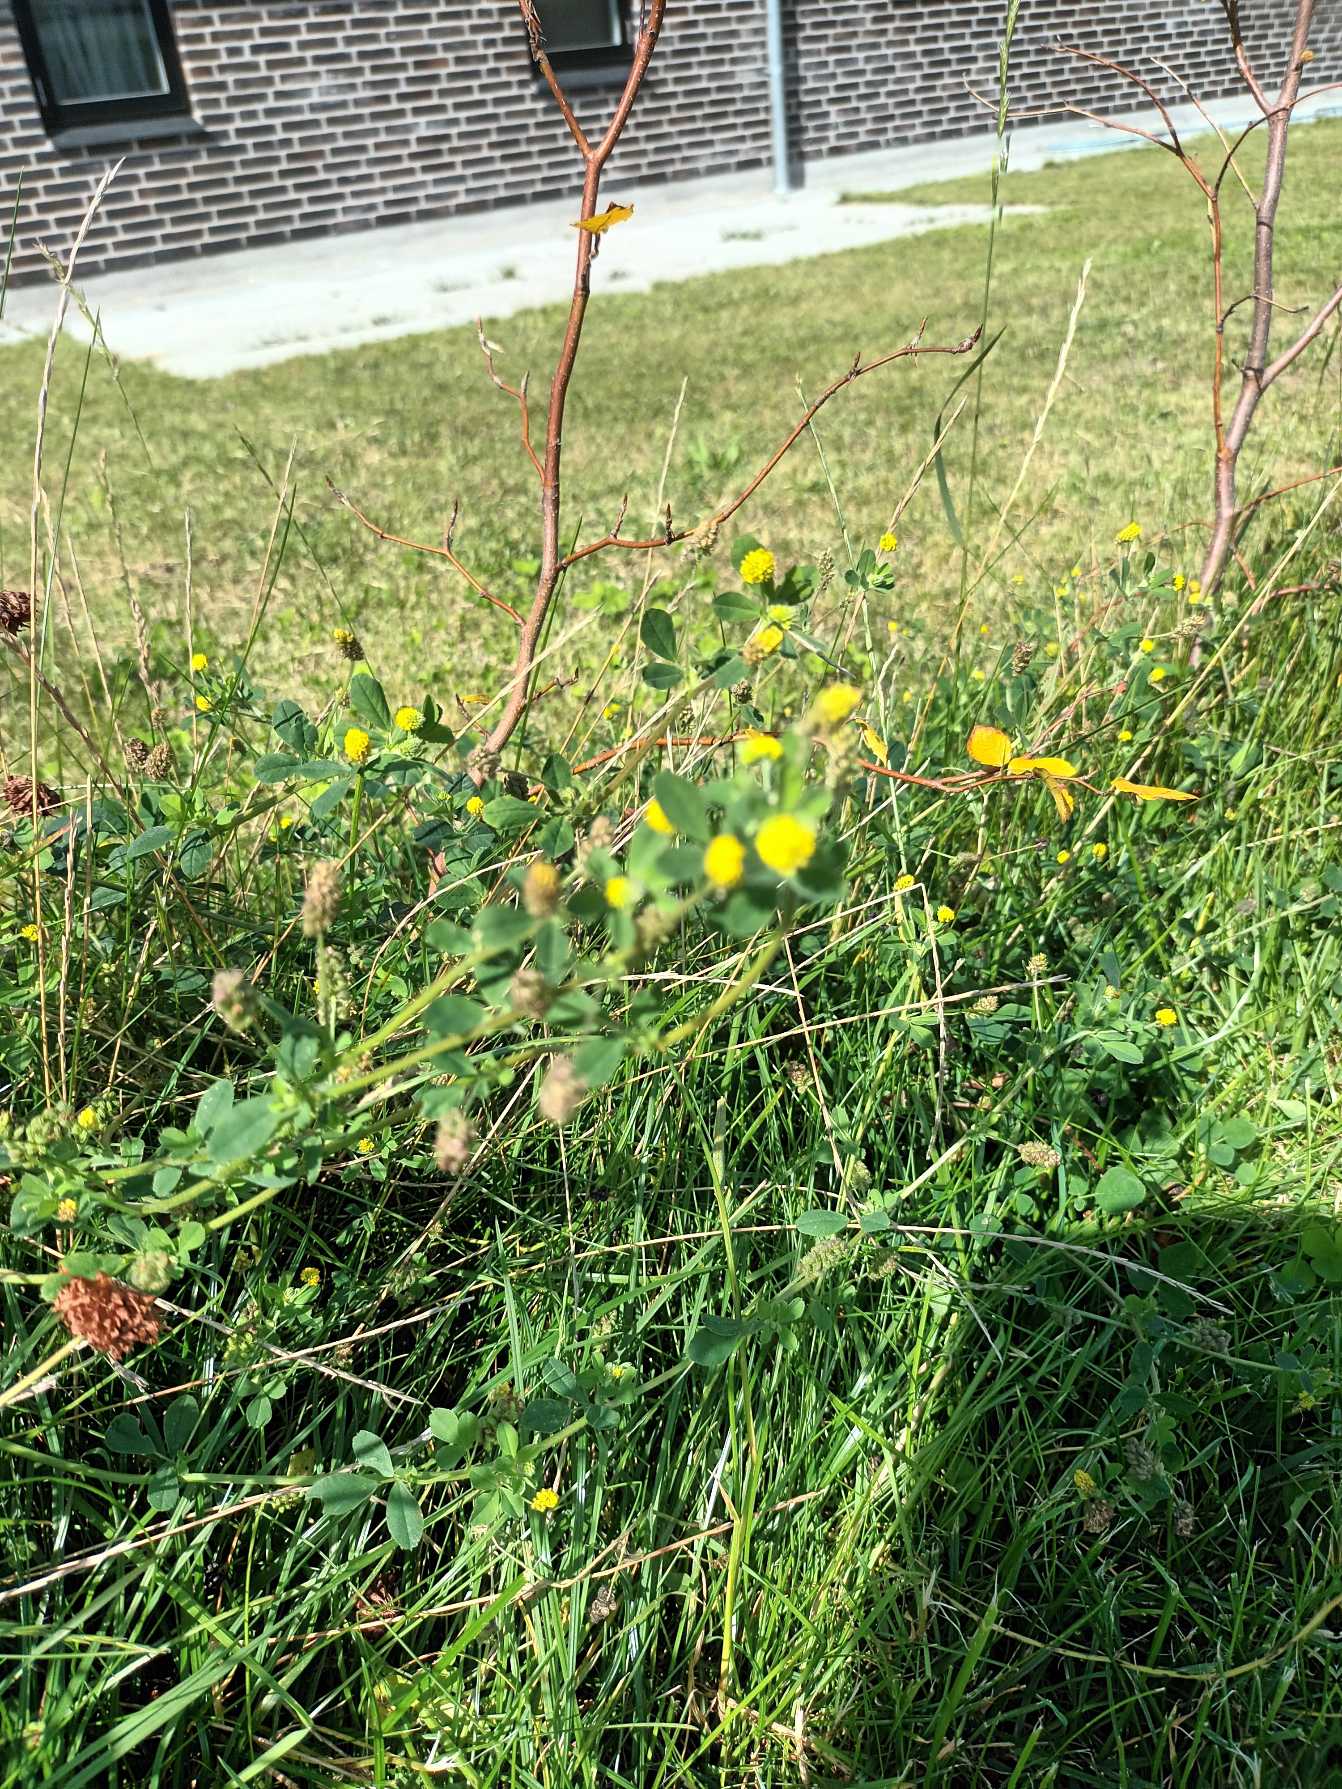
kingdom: Plantae
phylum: Tracheophyta
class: Magnoliopsida
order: Fabales
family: Fabaceae
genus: Medicago
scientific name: Medicago lupulina
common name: Humle-sneglebælg
